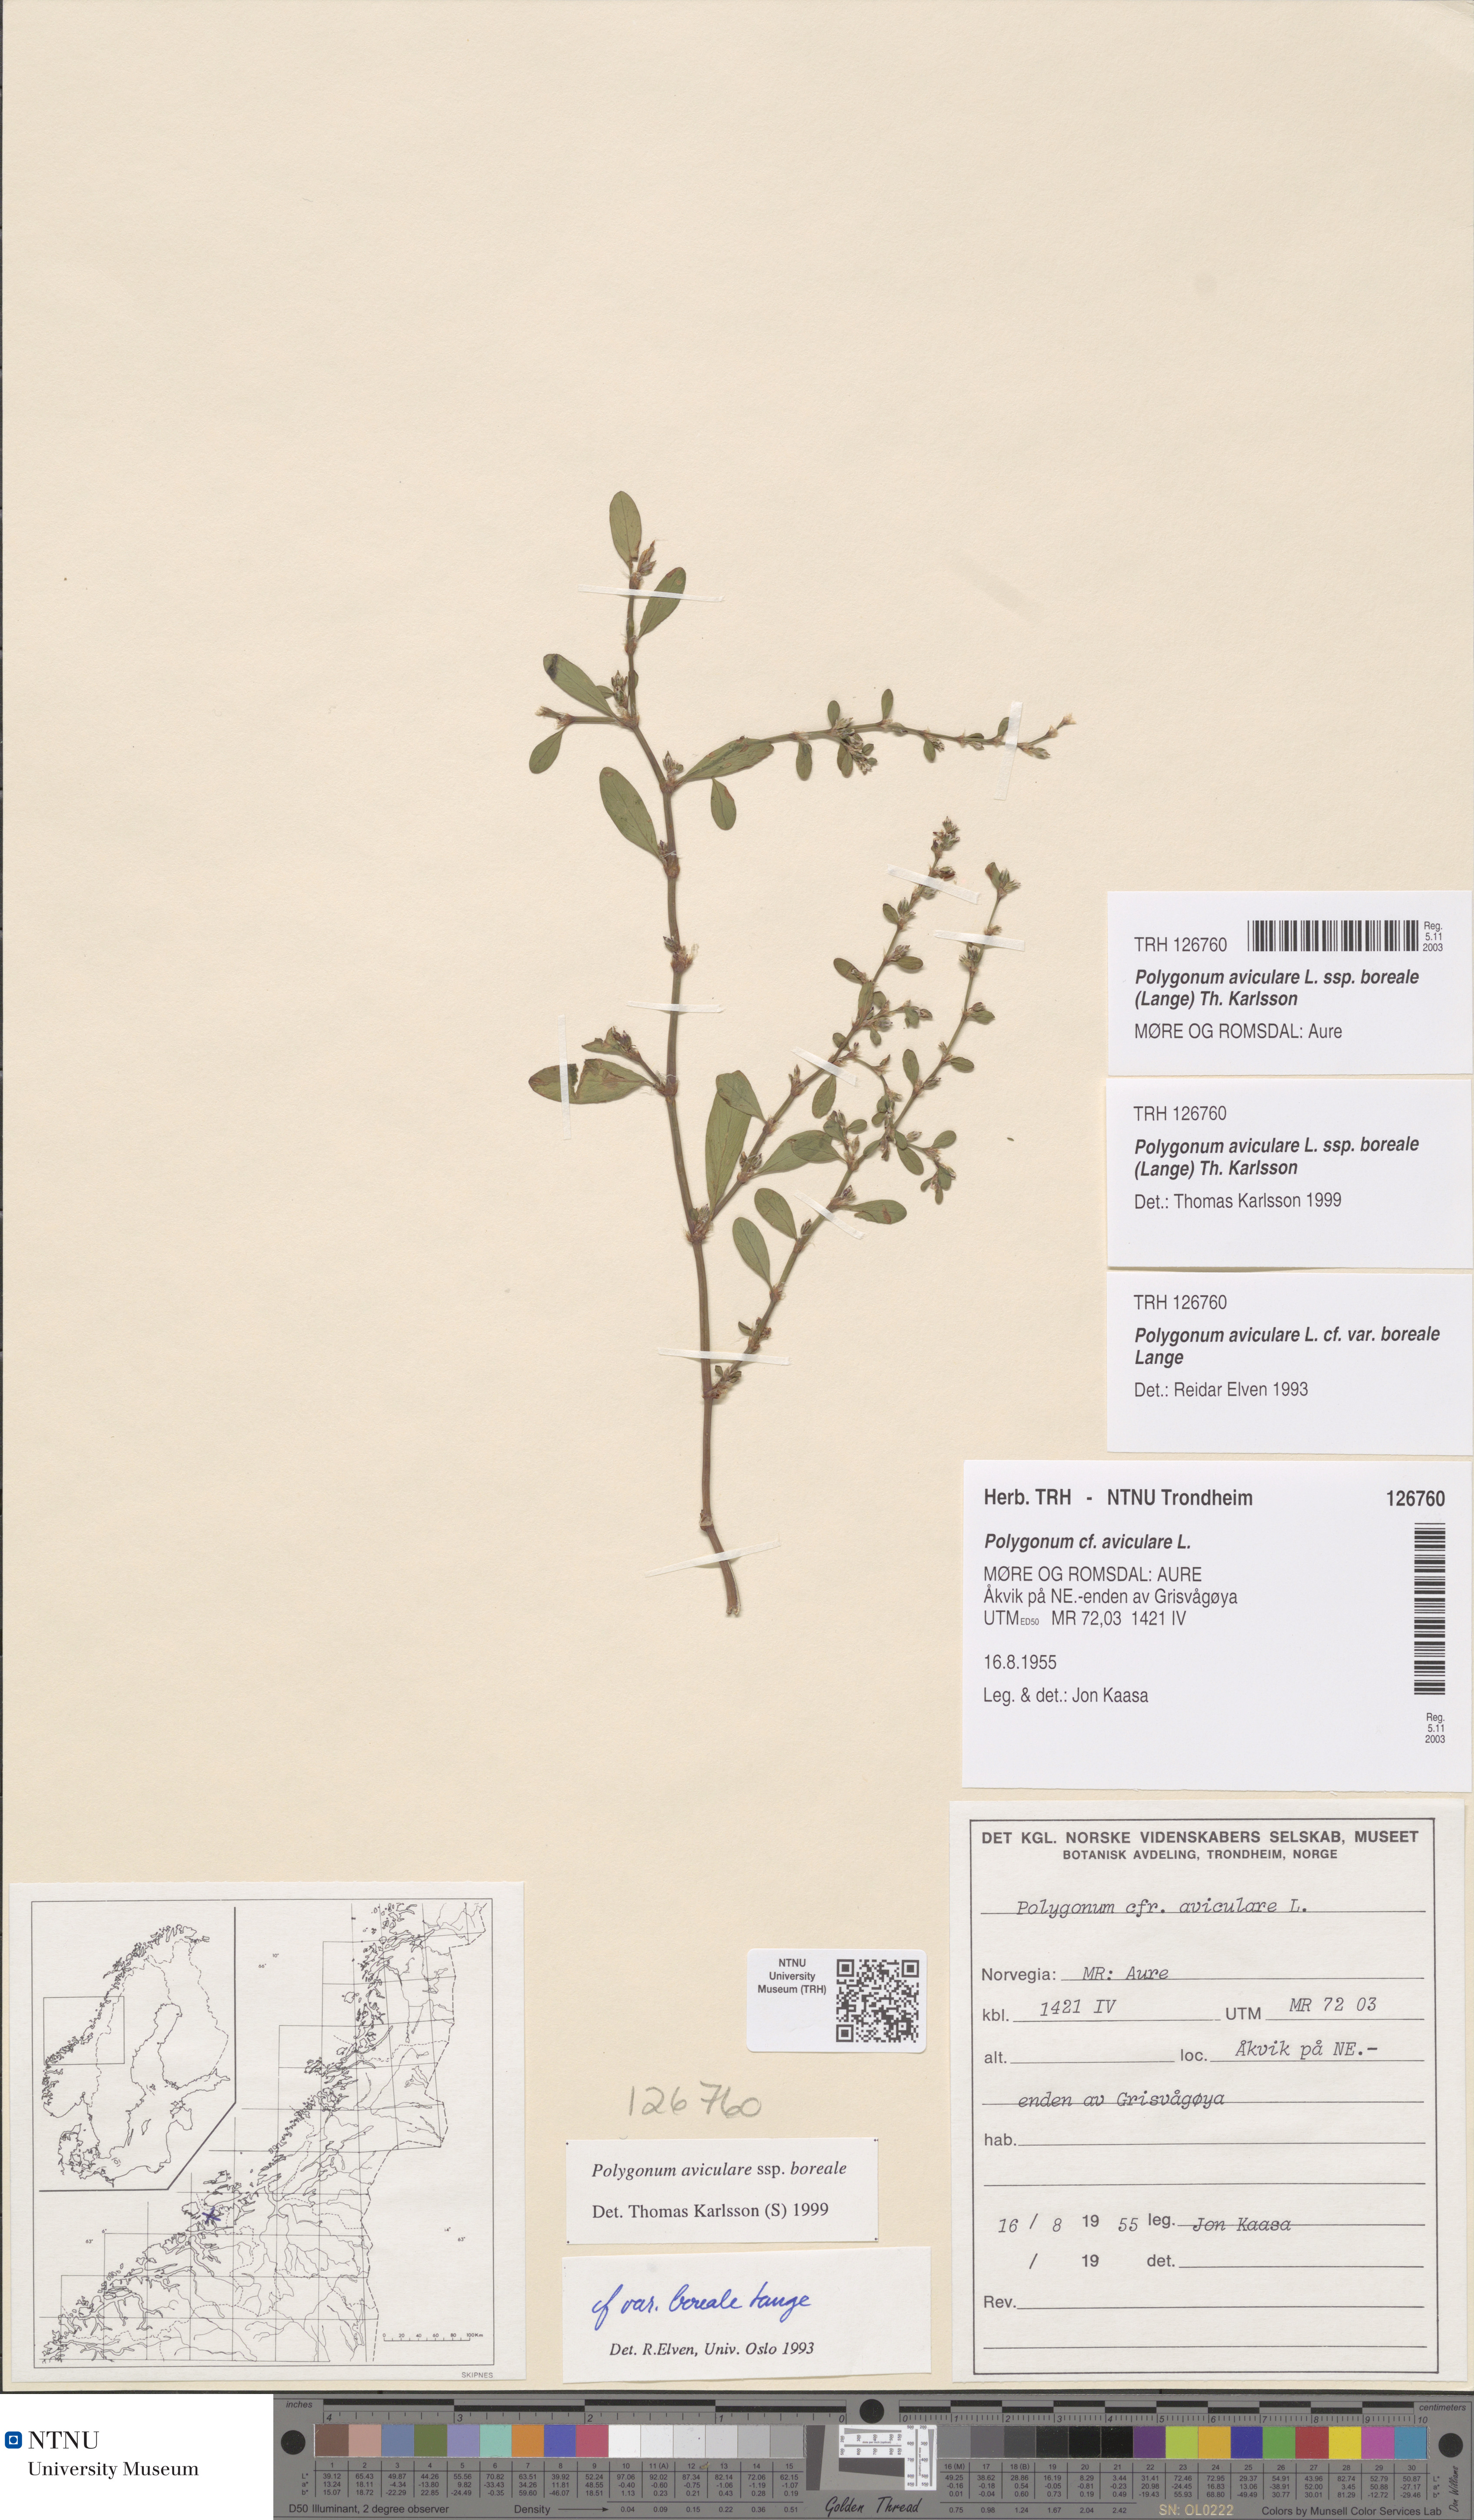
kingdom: Plantae
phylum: Tracheophyta
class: Magnoliopsida
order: Caryophyllales
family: Polygonaceae
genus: Polygonum
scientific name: Polygonum boreale
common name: Northern knotgrass
